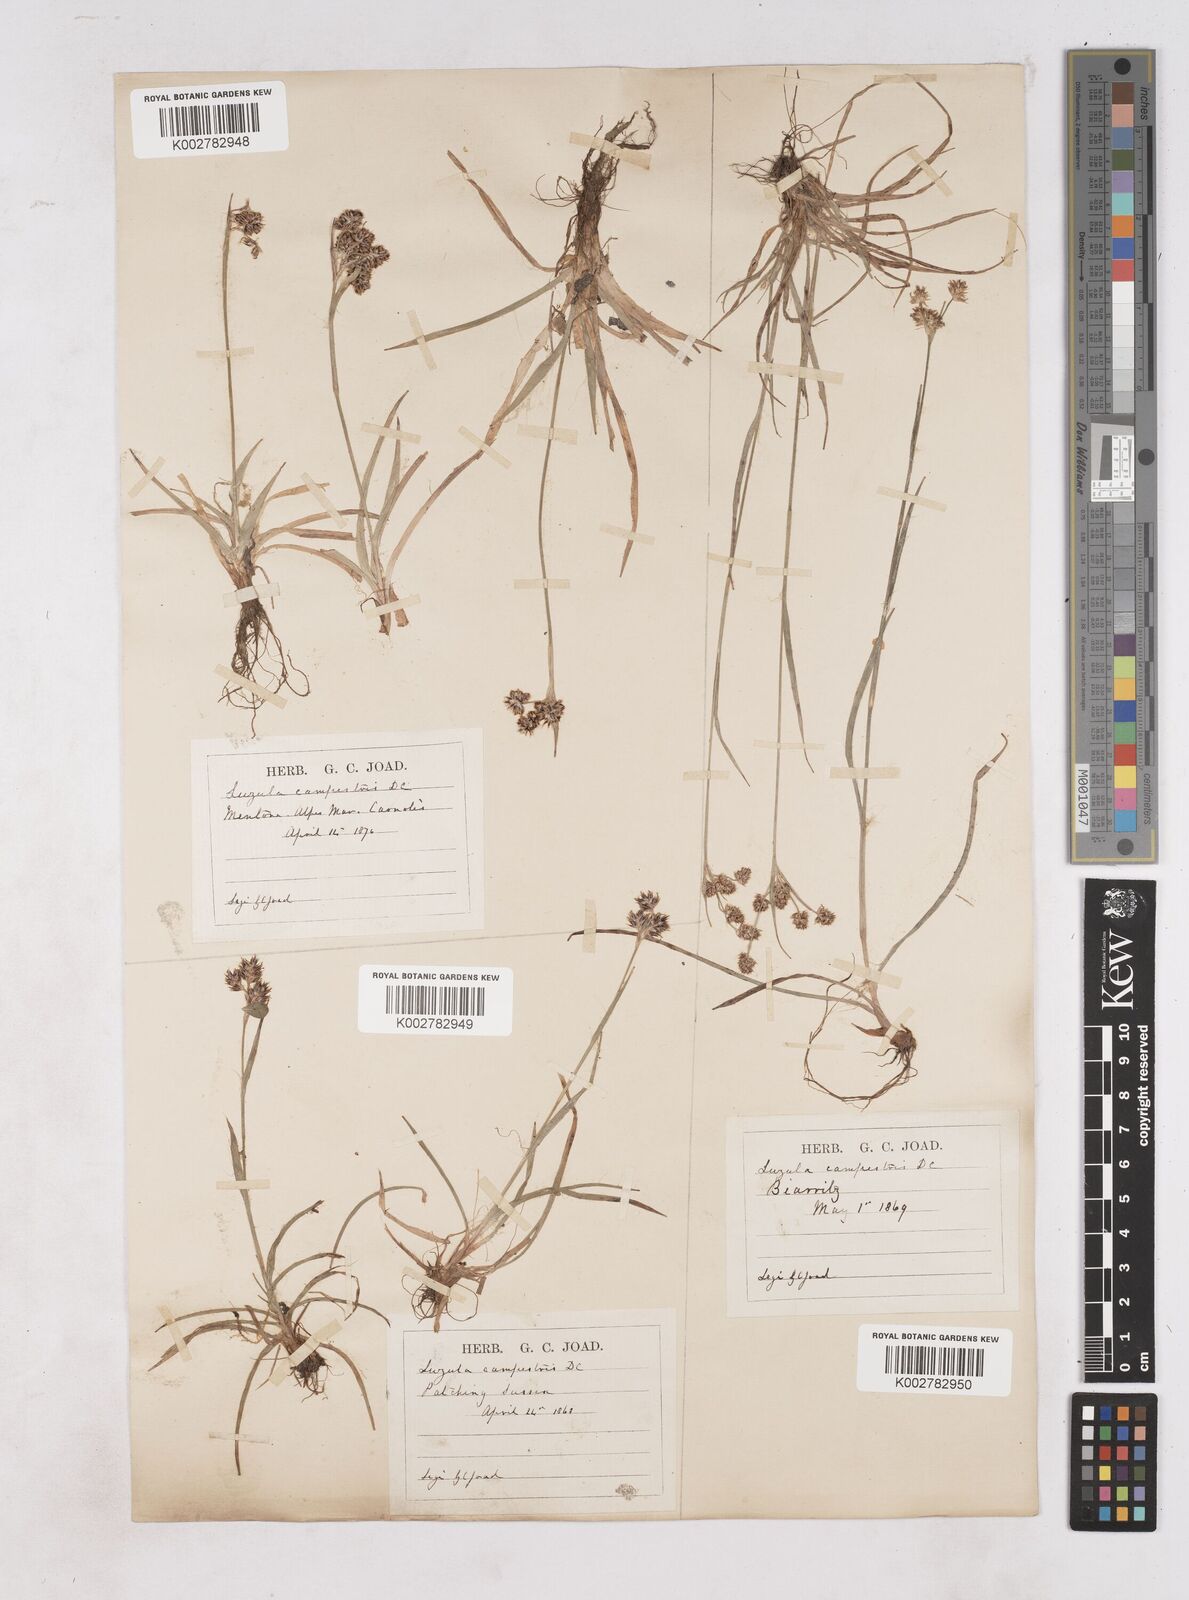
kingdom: Plantae
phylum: Tracheophyta
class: Liliopsida
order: Poales
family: Juncaceae
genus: Luzula
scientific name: Luzula campestris
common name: Field wood-rush
